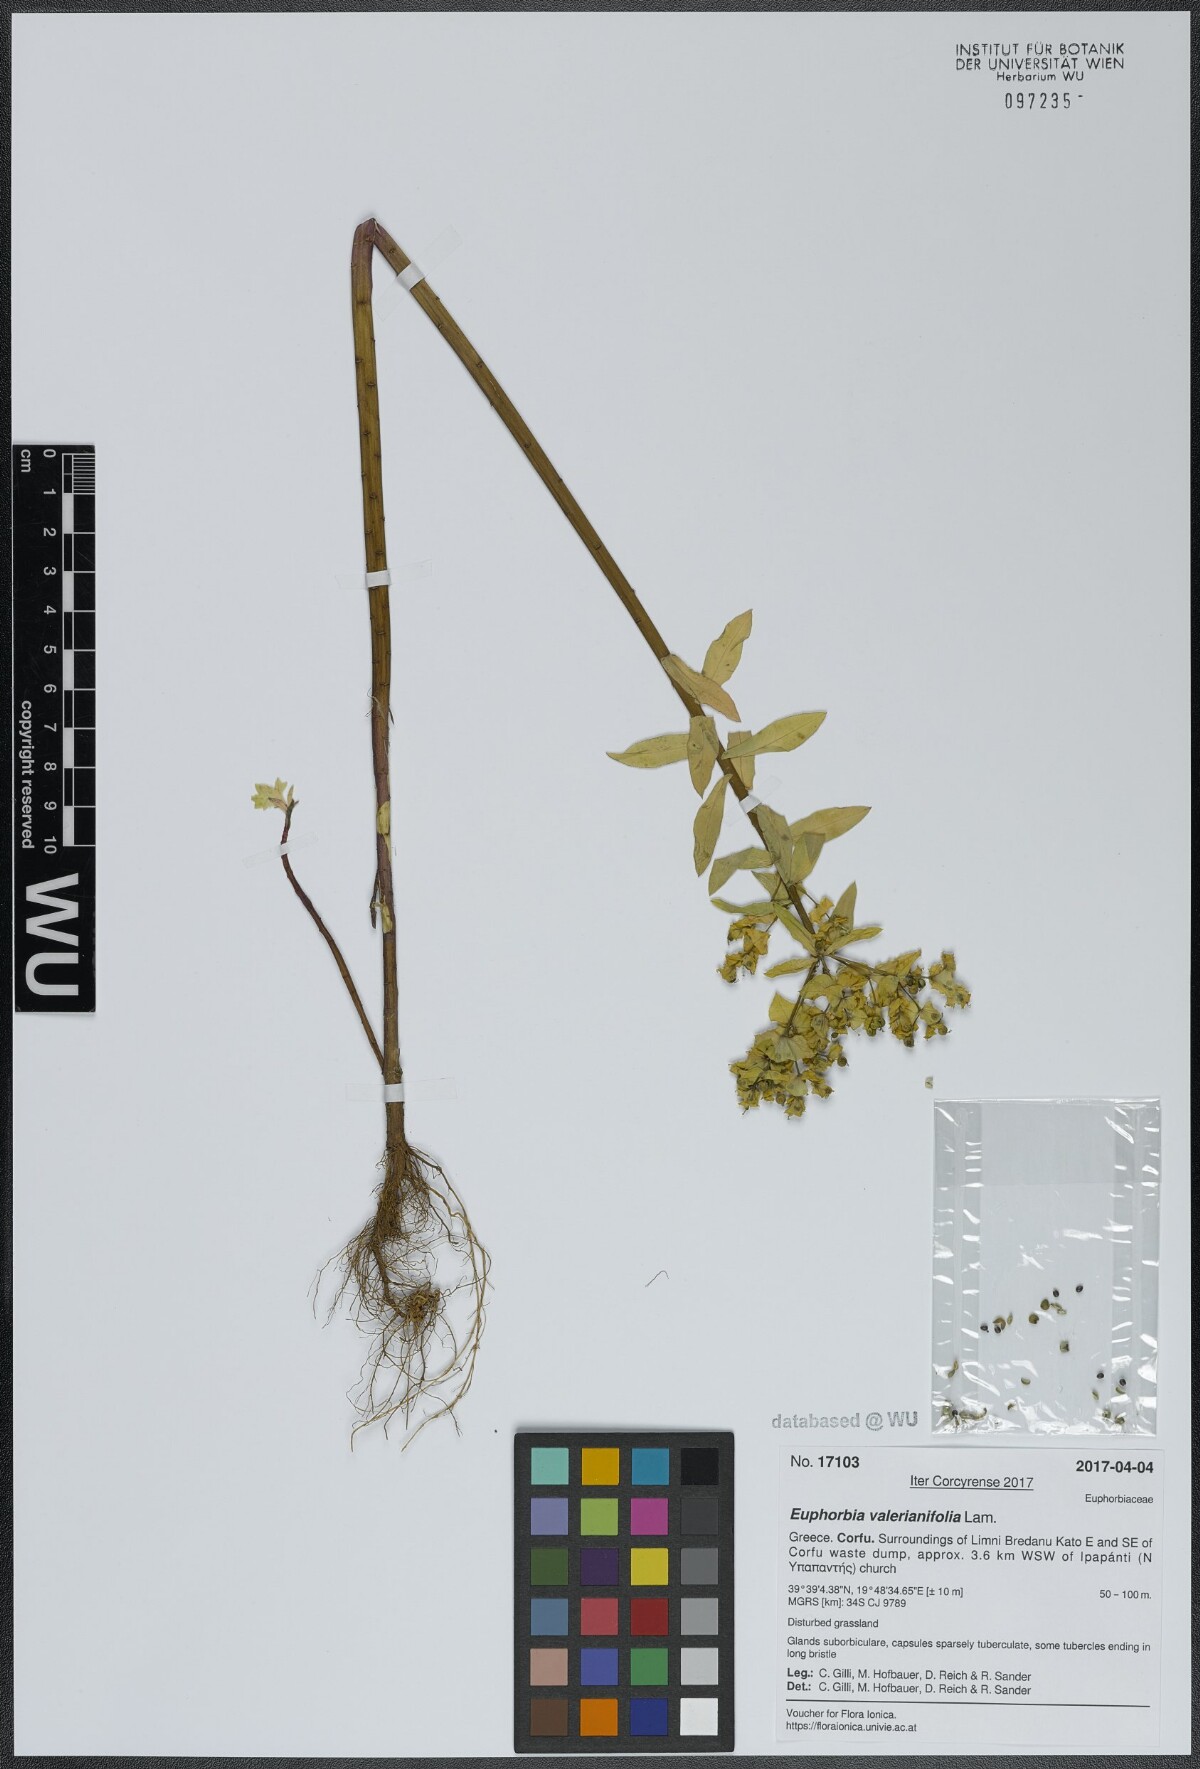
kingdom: Plantae
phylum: Tracheophyta
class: Magnoliopsida
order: Malpighiales
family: Euphorbiaceae
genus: Euphorbia
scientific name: Euphorbia platyphyllos
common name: Broad-leaved spurge
